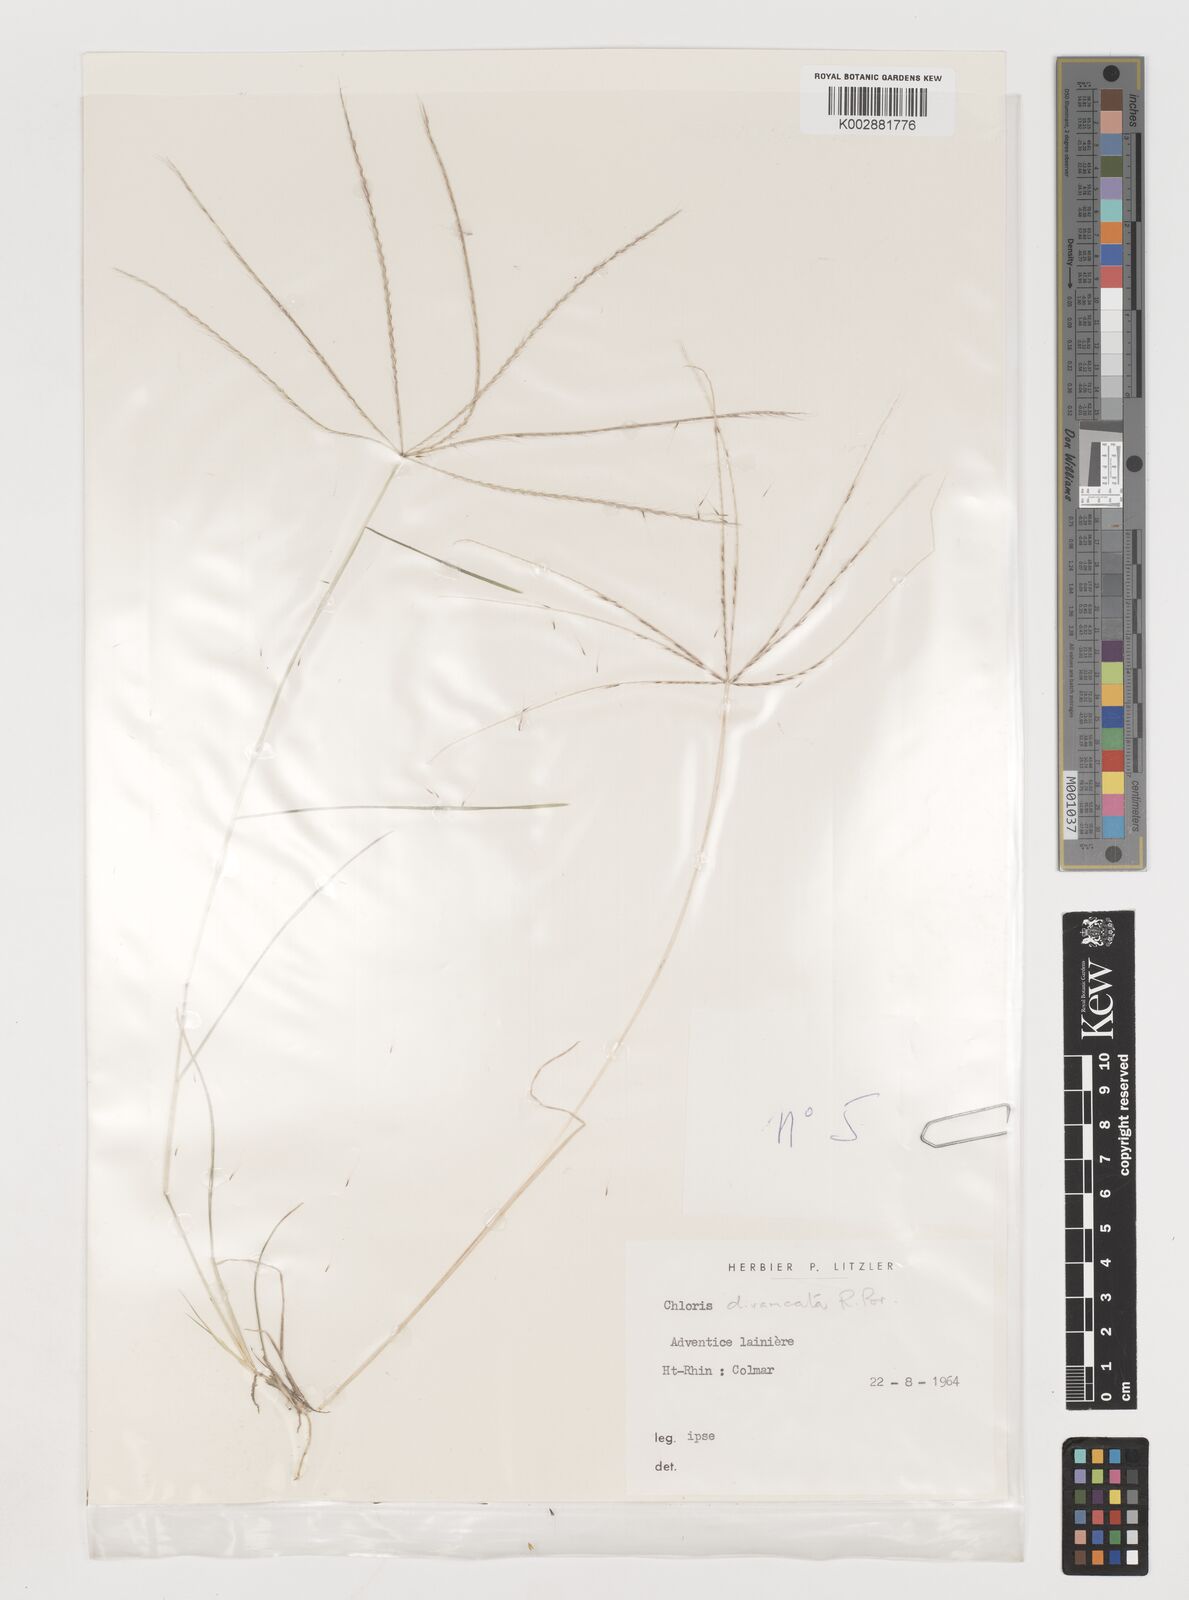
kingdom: Plantae
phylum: Tracheophyta
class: Liliopsida
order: Poales
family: Poaceae
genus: Chloris
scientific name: Chloris divaricata
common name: Spreading windmill grass
